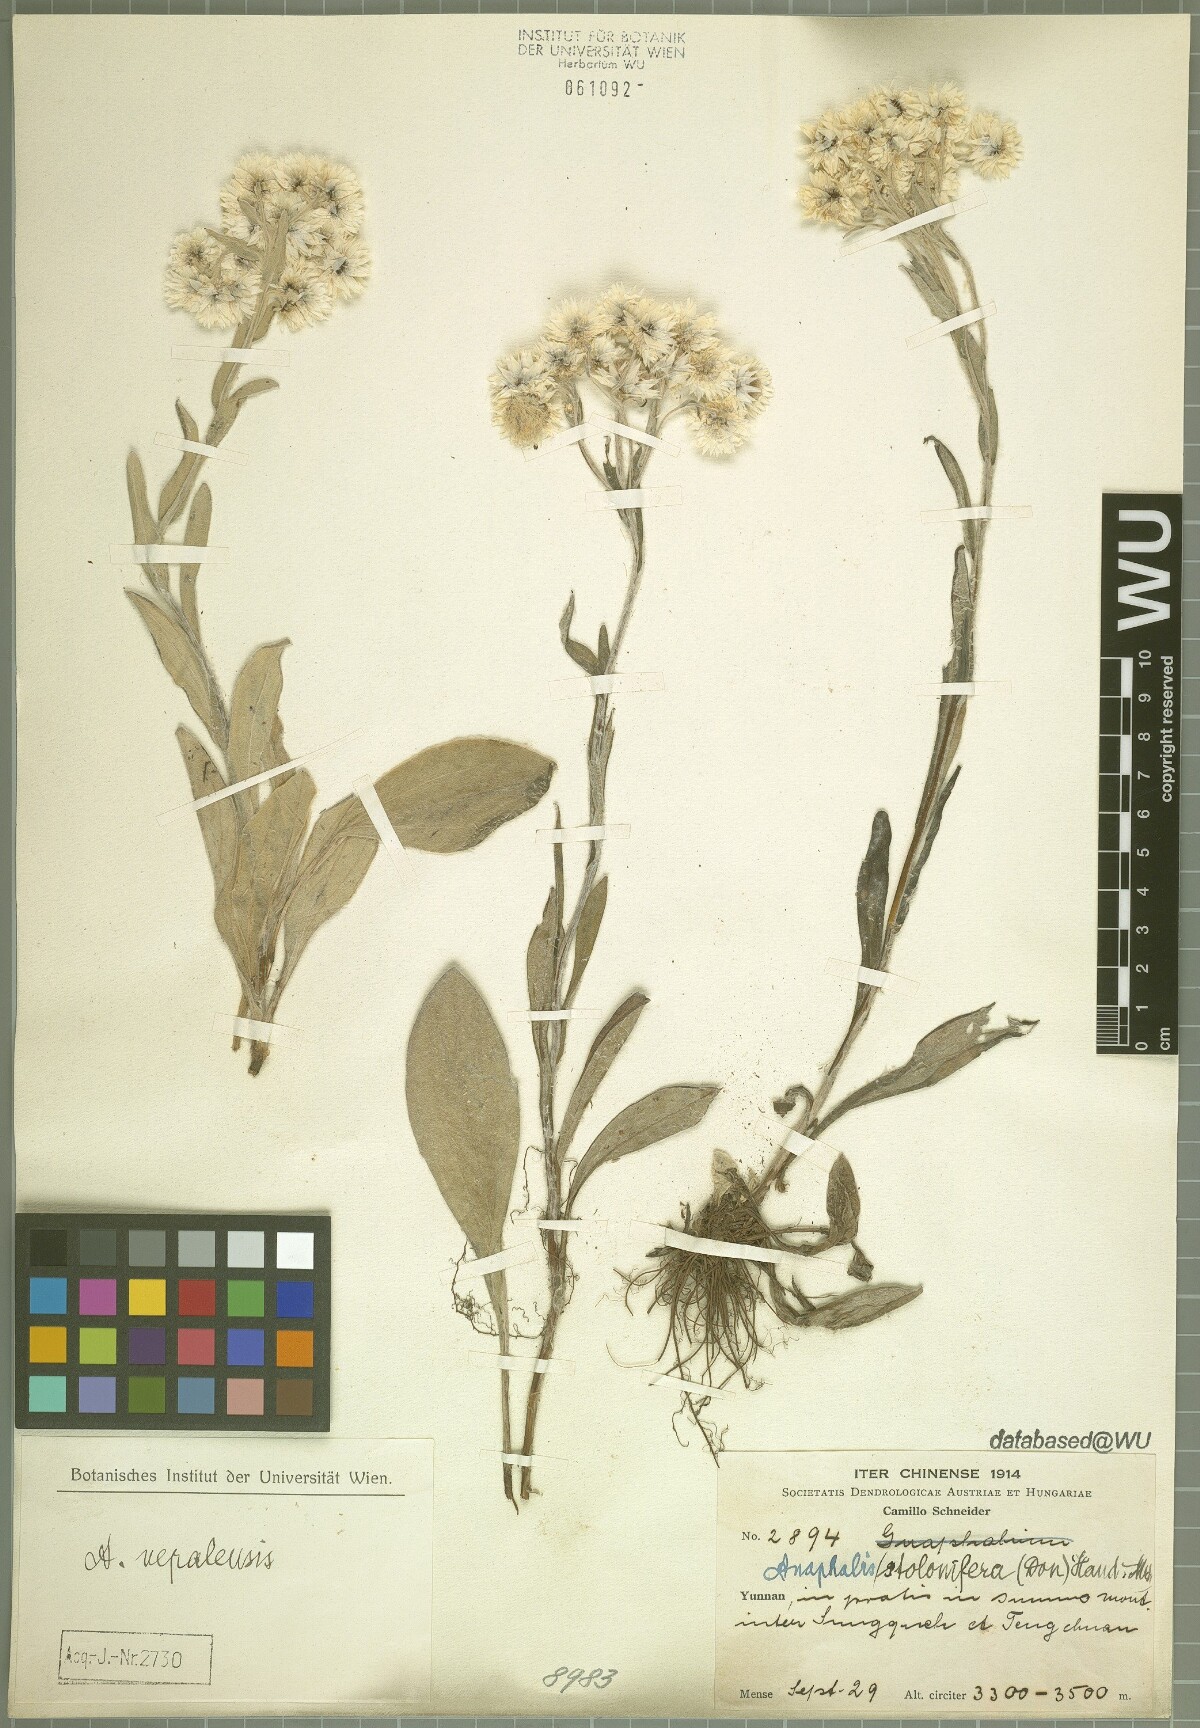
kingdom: Plantae
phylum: Tracheophyta
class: Magnoliopsida
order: Asterales
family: Asteraceae
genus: Anaphalis
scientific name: Anaphalis nepalensis
